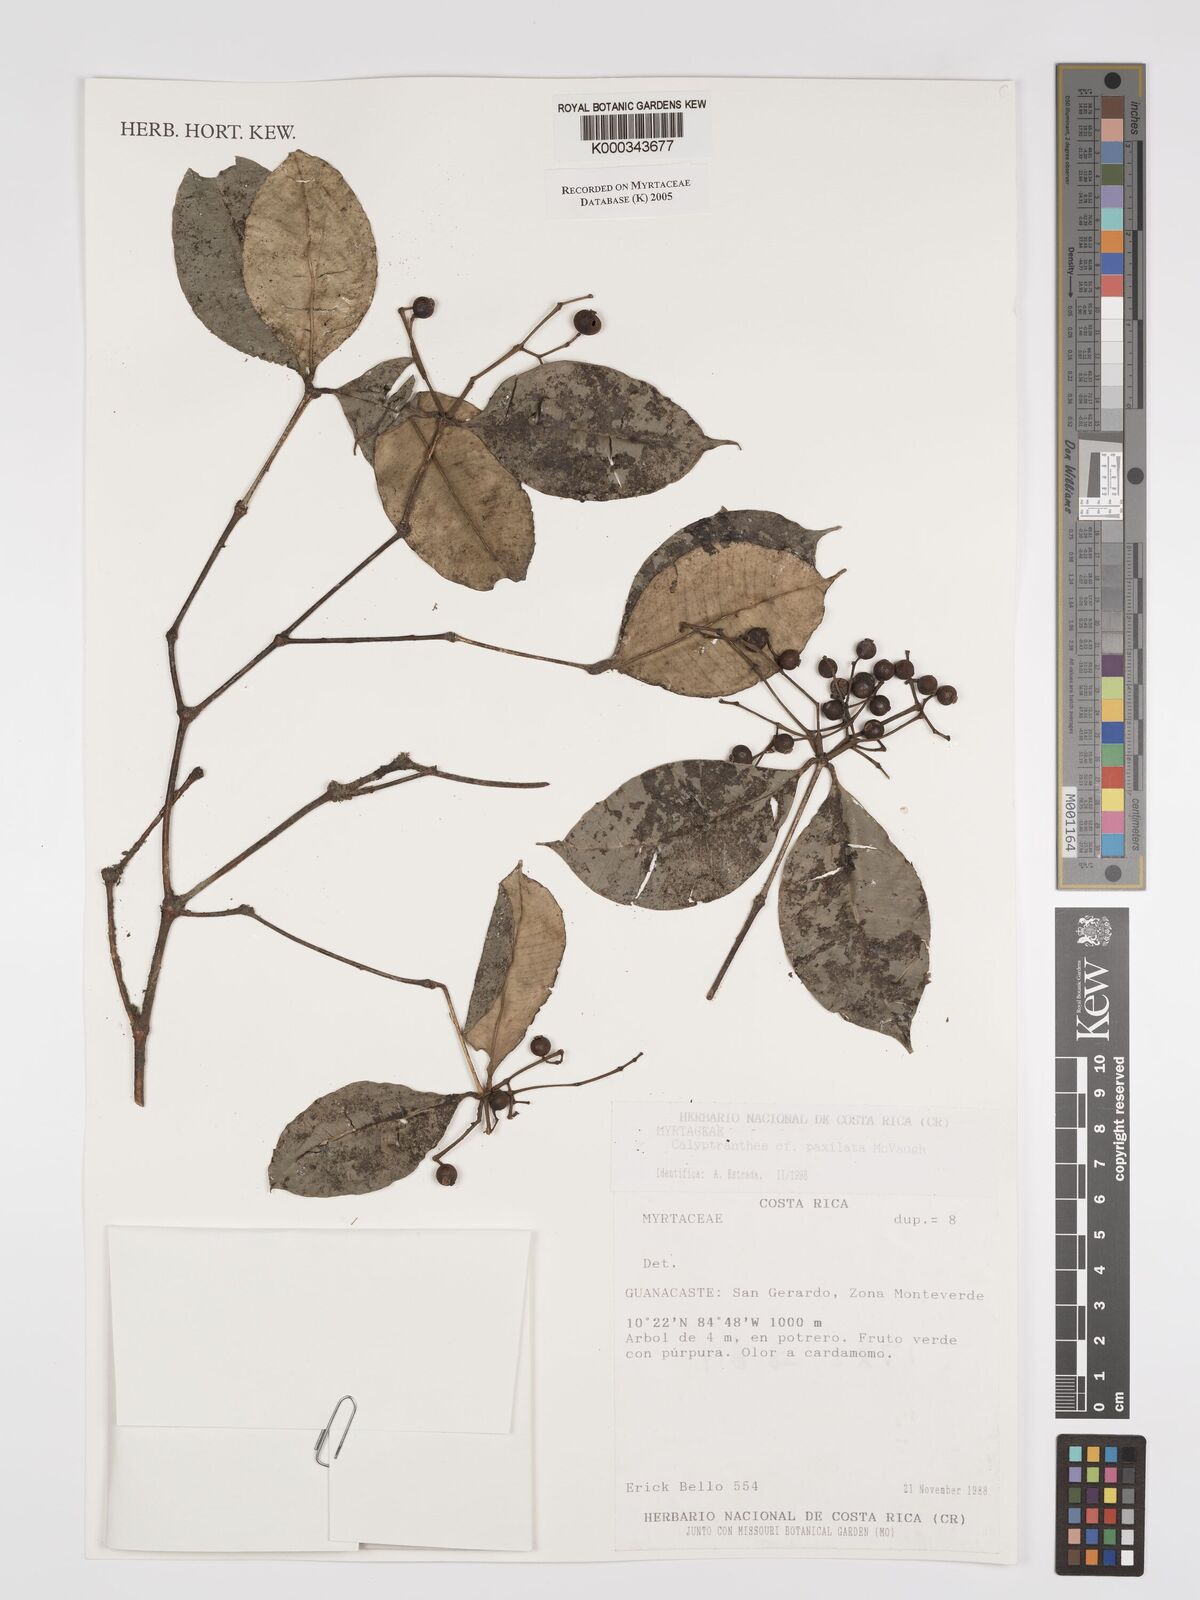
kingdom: Plantae
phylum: Tracheophyta
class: Magnoliopsida
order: Myrtales
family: Myrtaceae
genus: Myrcia
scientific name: Myrcia paxillata
